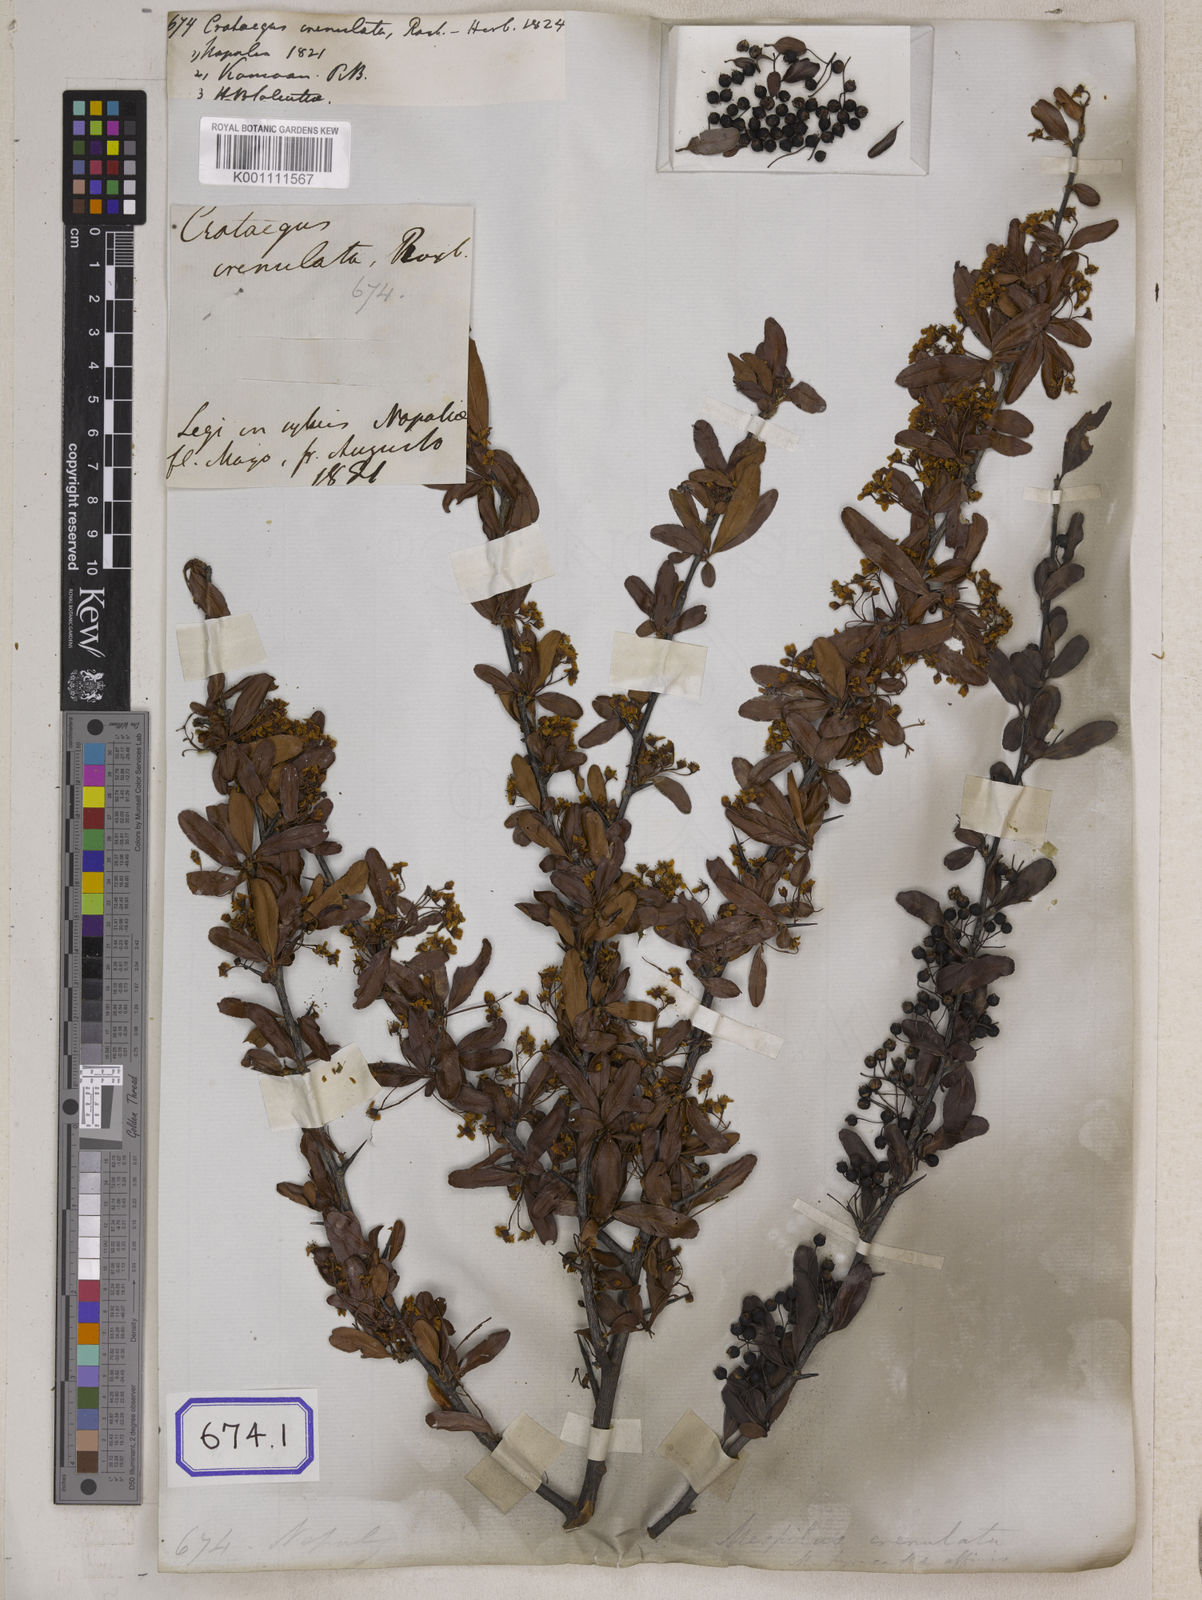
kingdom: Plantae
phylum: Tracheophyta
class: Magnoliopsida
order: Rosales
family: Rosaceae
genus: Pyracantha
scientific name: Pyracantha crenulata
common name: Nepalese firethorn
